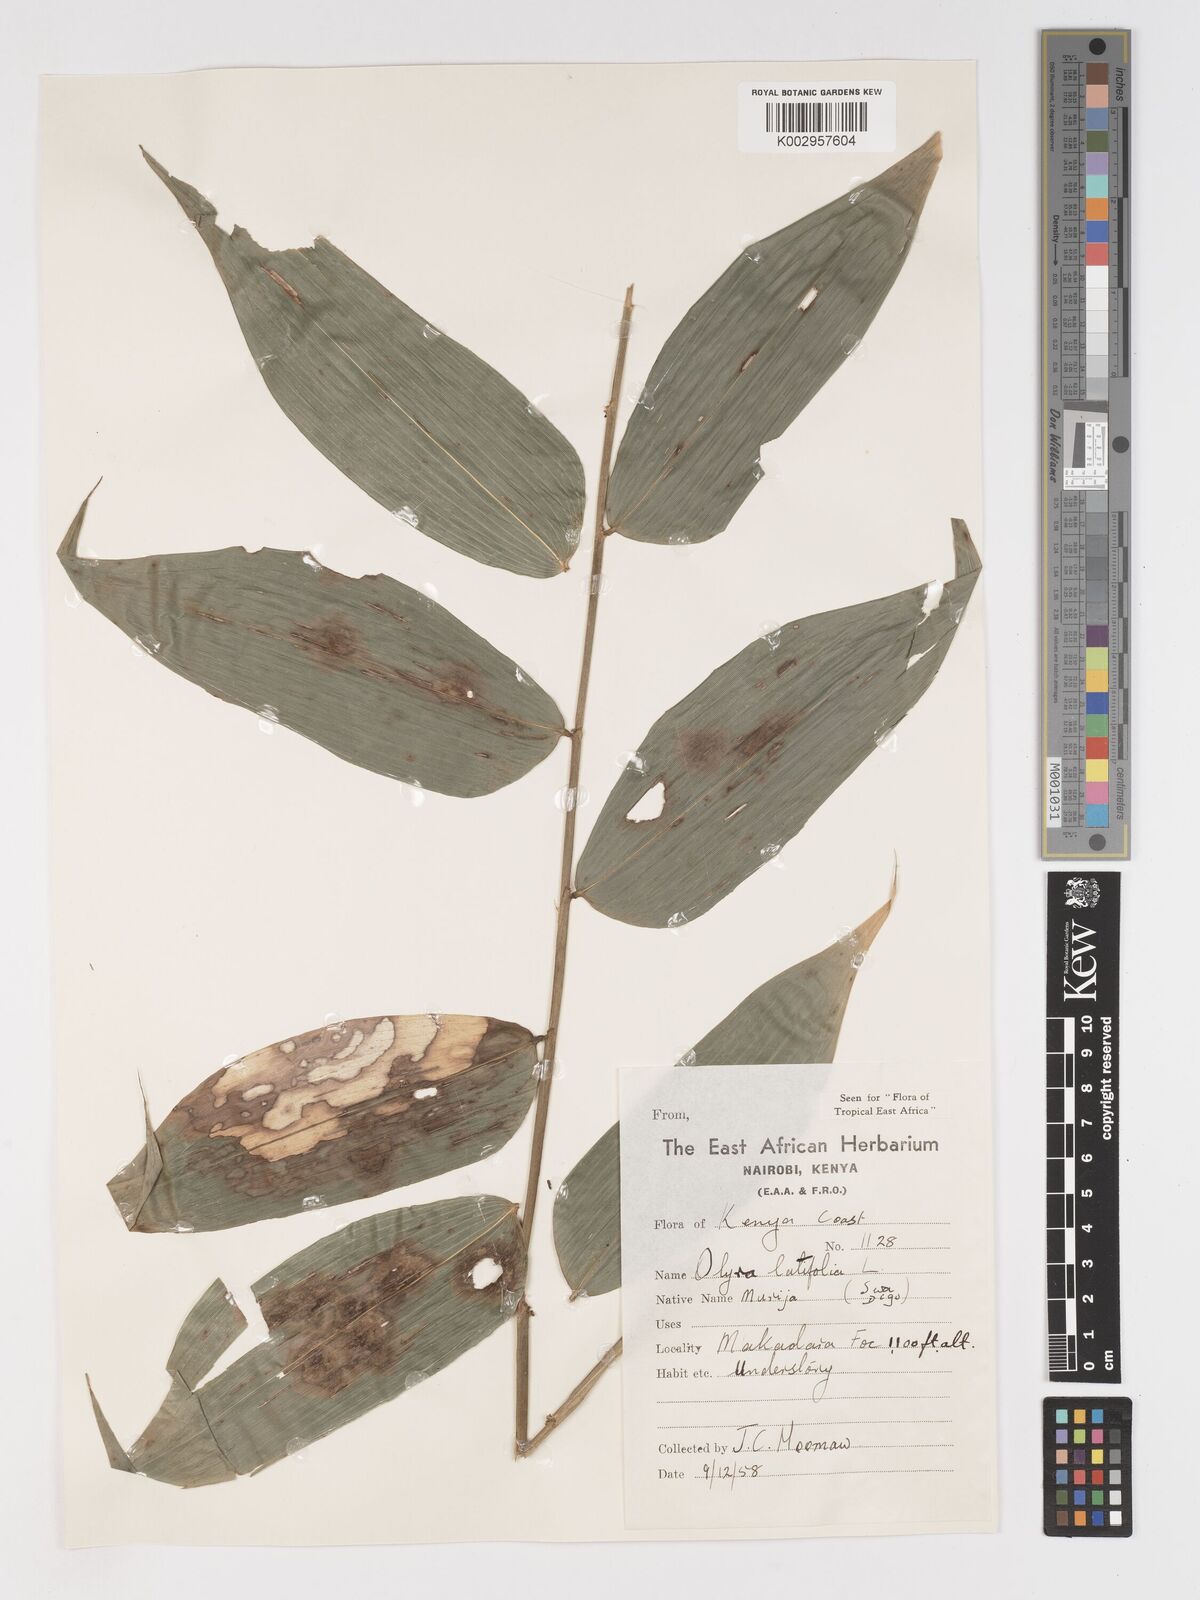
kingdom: Plantae
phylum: Tracheophyta
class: Liliopsida
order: Poales
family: Poaceae
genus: Olyra
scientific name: Olyra latifolia
